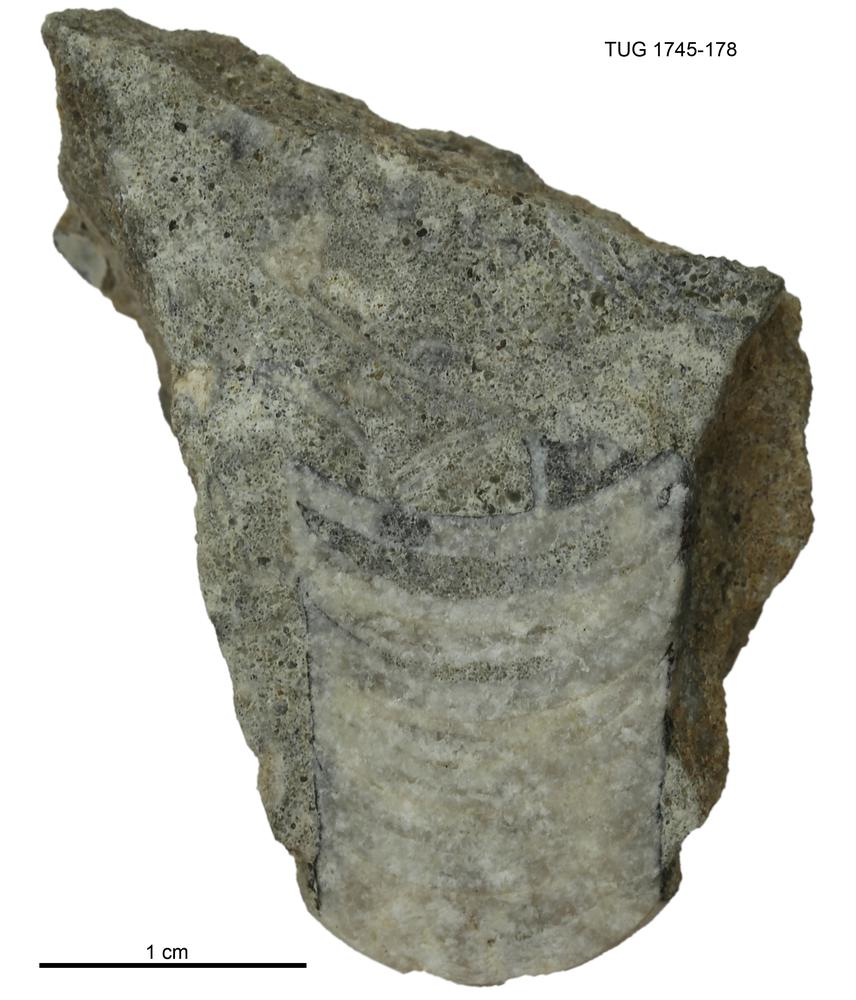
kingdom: Animalia
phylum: Mollusca
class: Cephalopoda
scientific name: Cephalopoda
